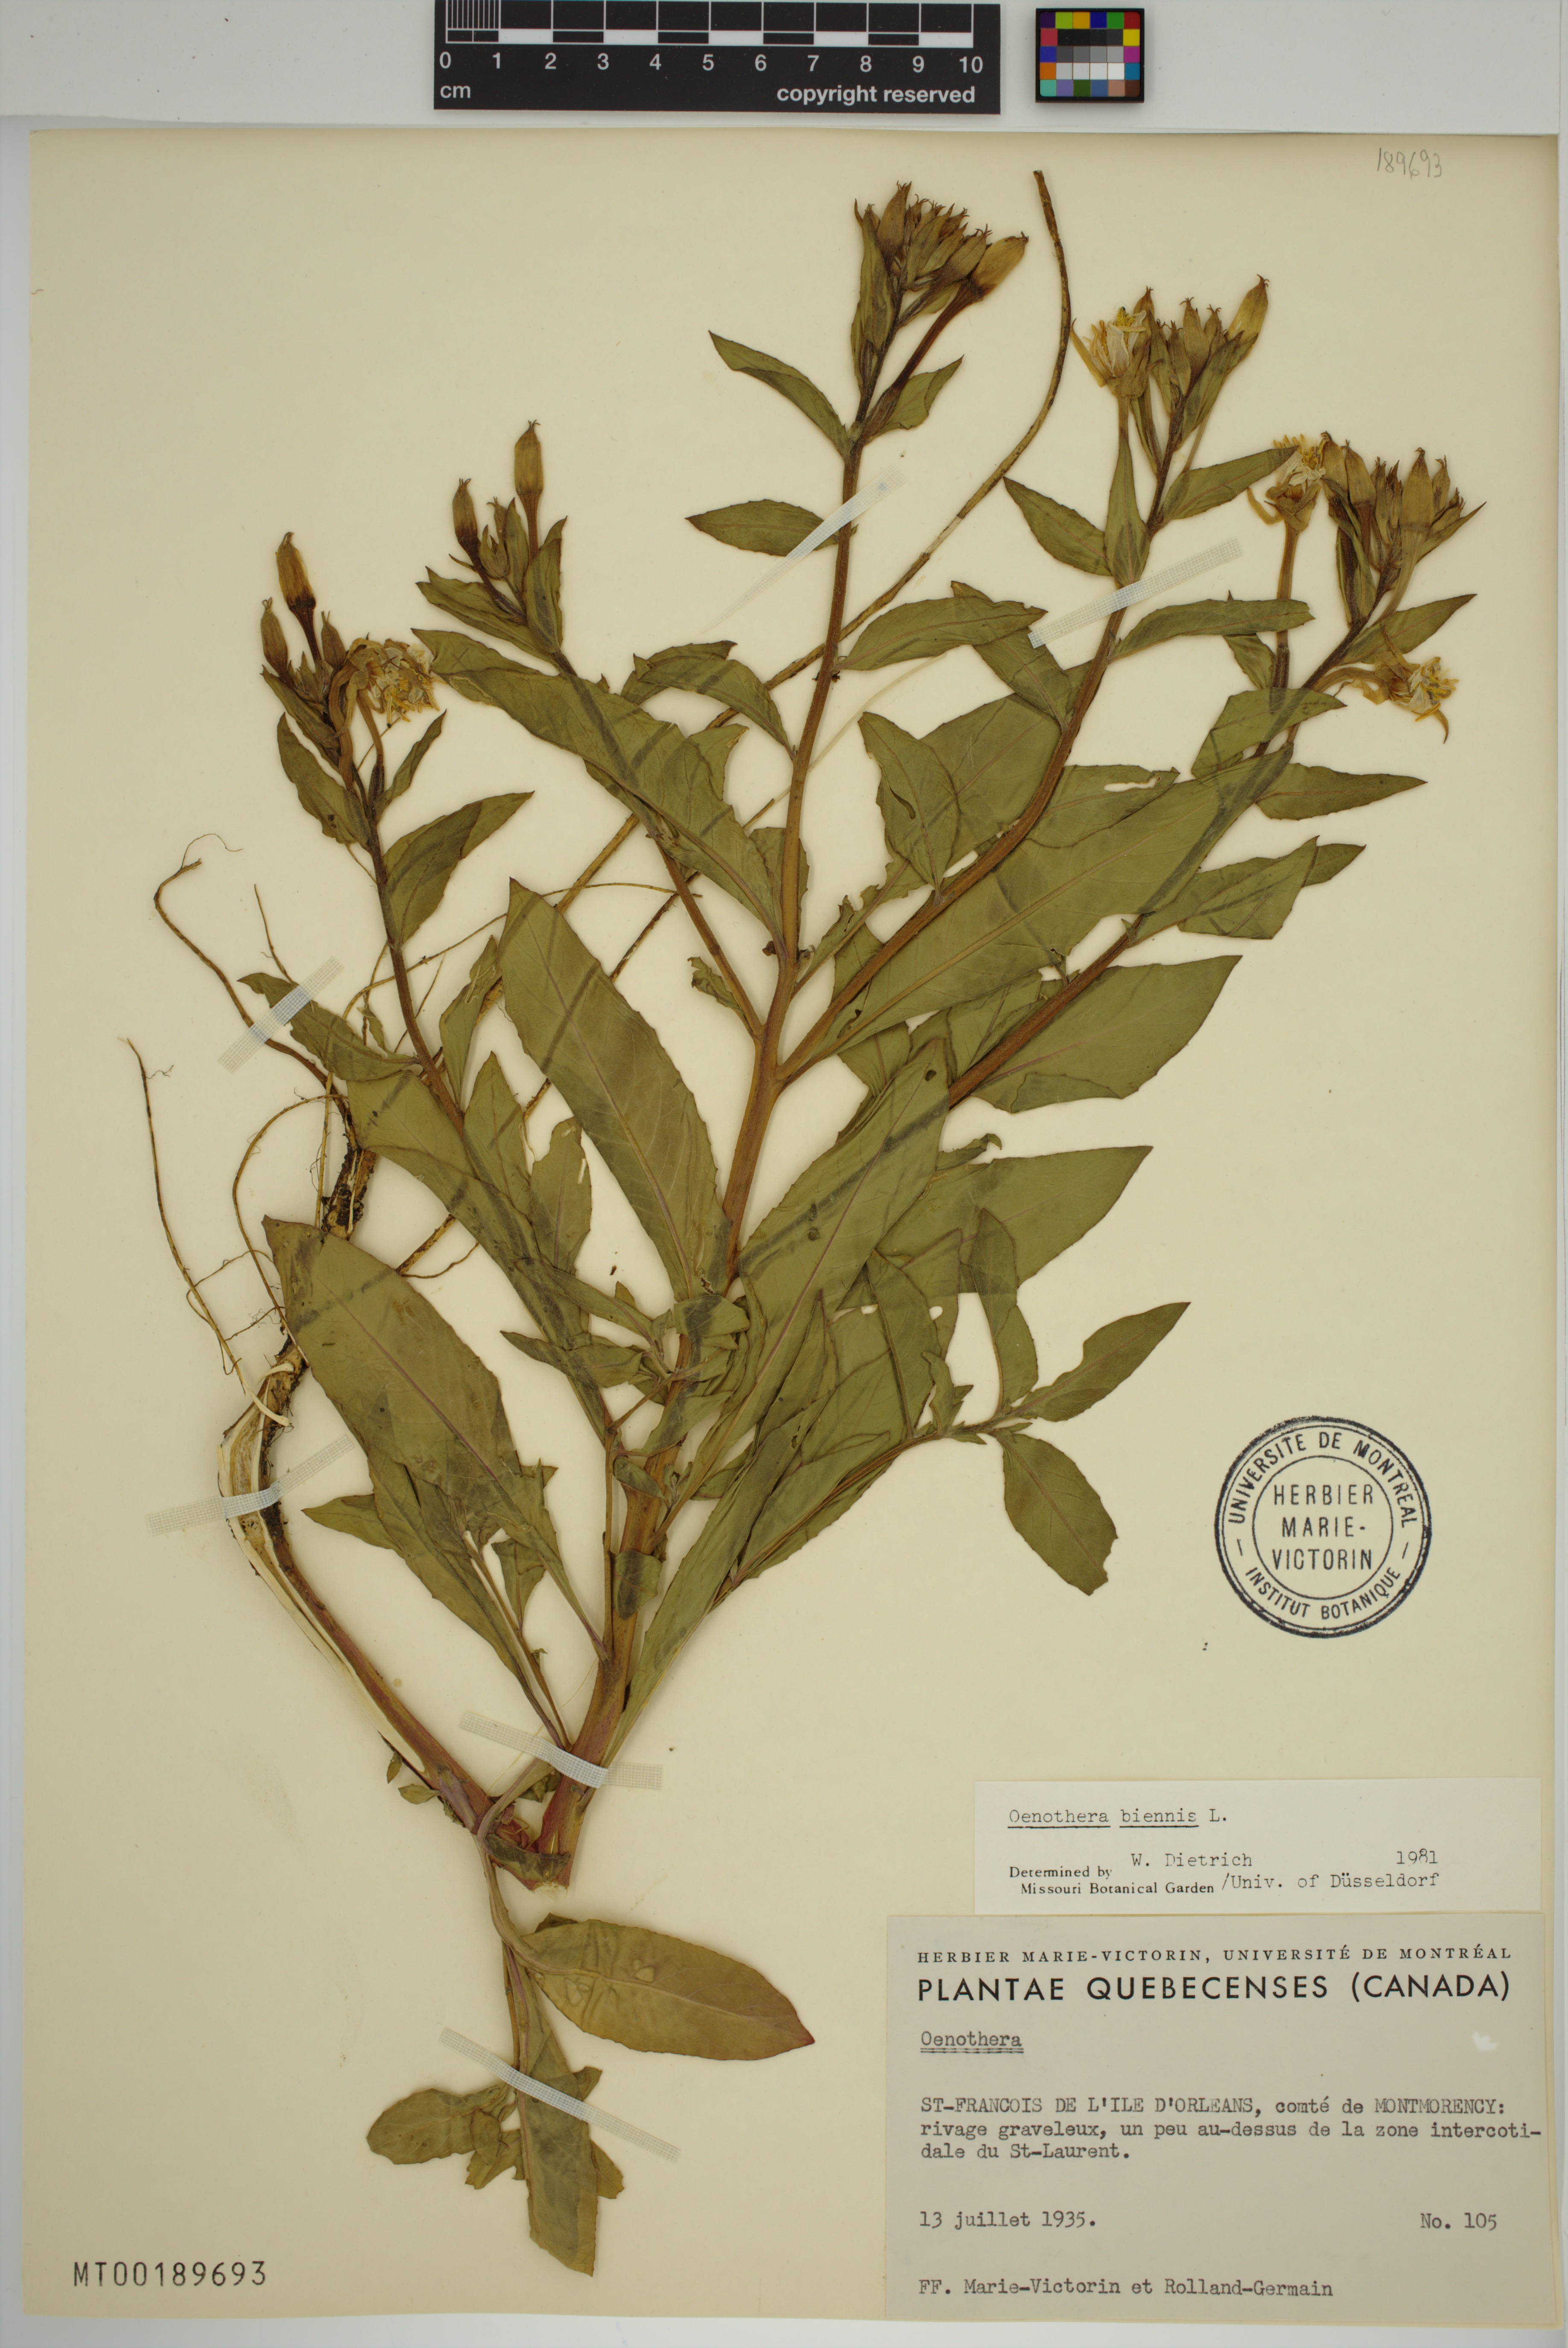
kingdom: Plantae
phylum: Tracheophyta
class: Magnoliopsida
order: Myrtales
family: Onagraceae
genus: Oenothera
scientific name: Oenothera biennis
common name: Common evening-primrose
